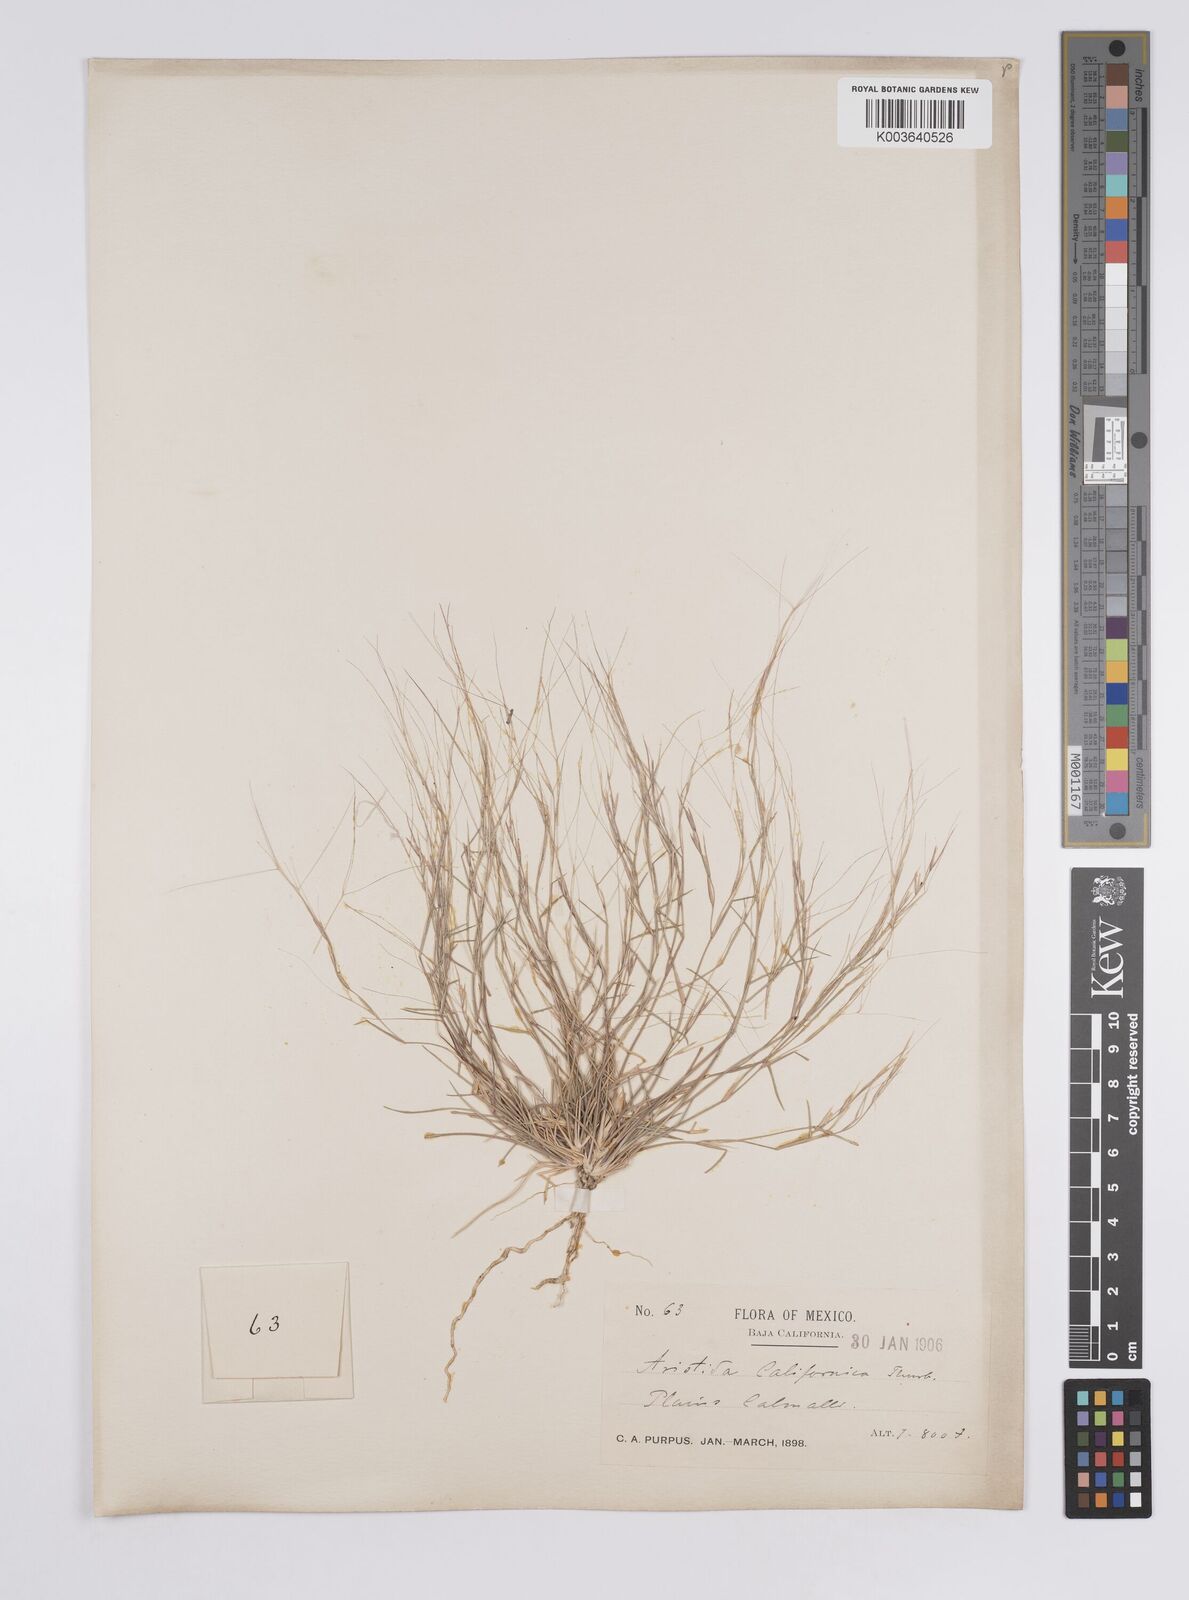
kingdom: Plantae
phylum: Tracheophyta
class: Liliopsida
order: Poales
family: Poaceae
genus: Aristida
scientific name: Aristida californica
